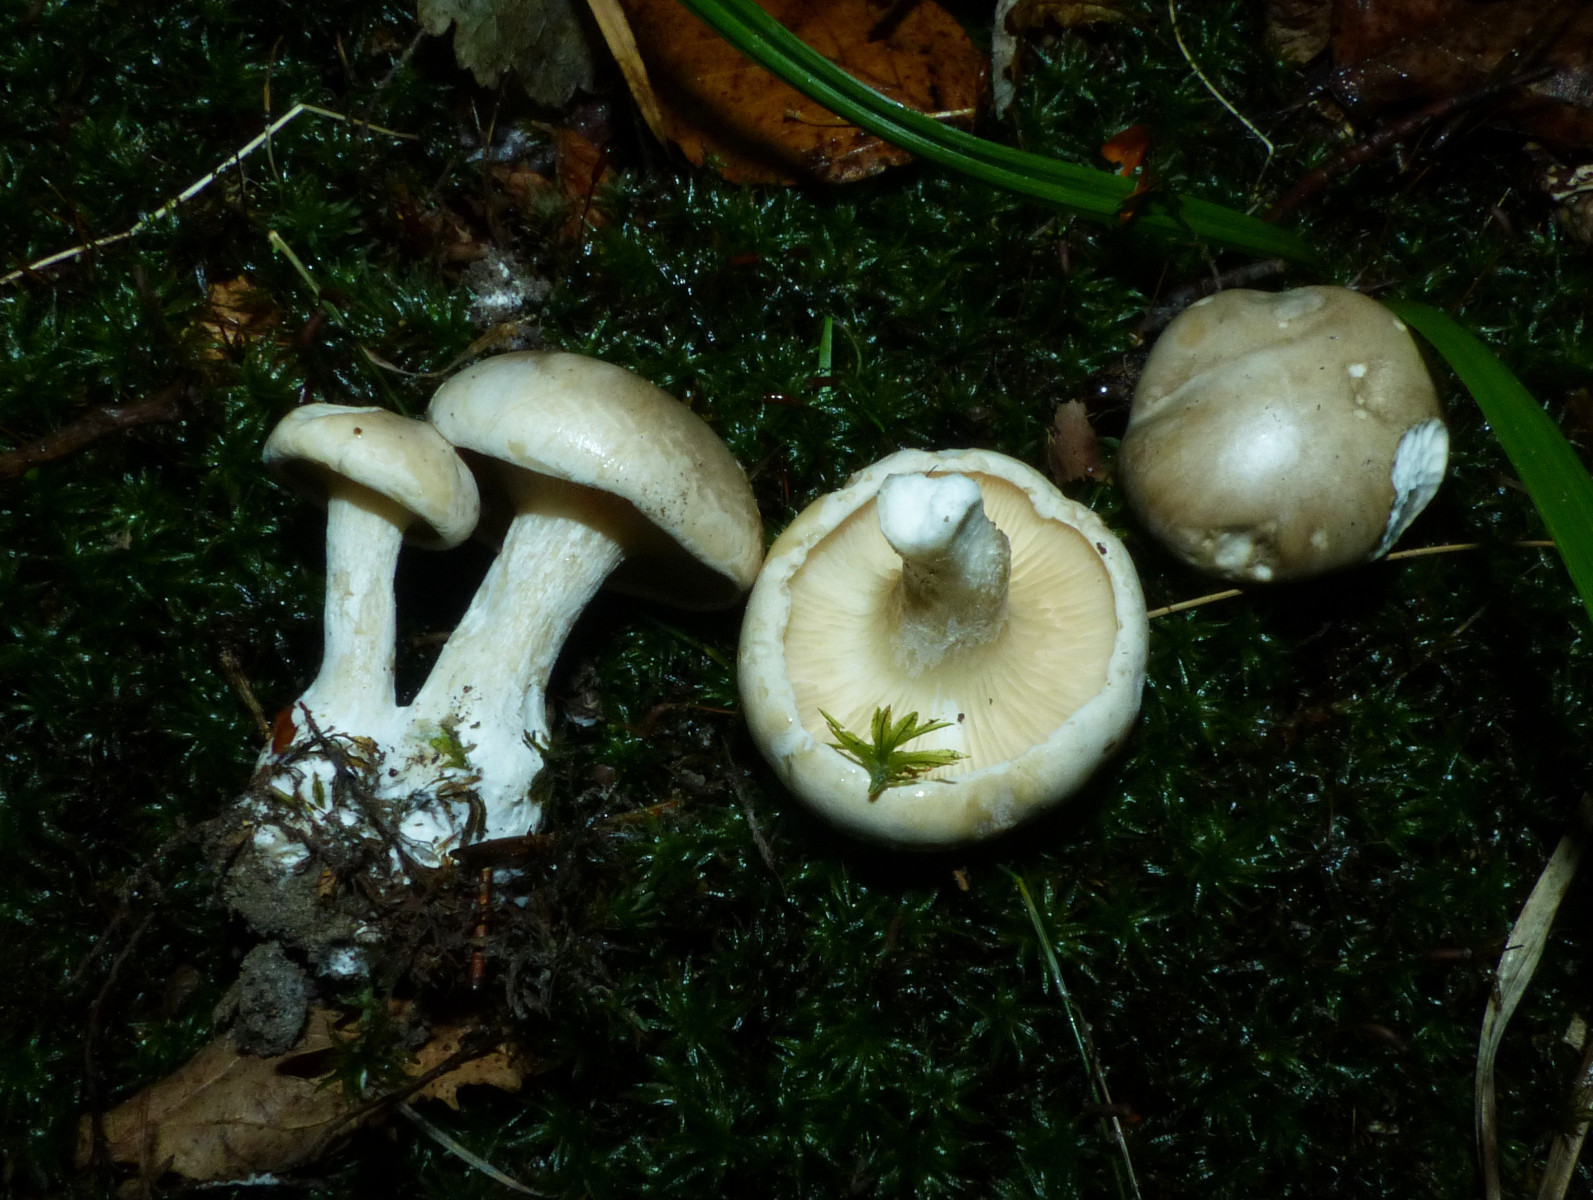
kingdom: Fungi
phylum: Basidiomycota
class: Agaricomycetes
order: Agaricales
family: Entolomataceae
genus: Clitopilus
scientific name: Clitopilus prunulus
